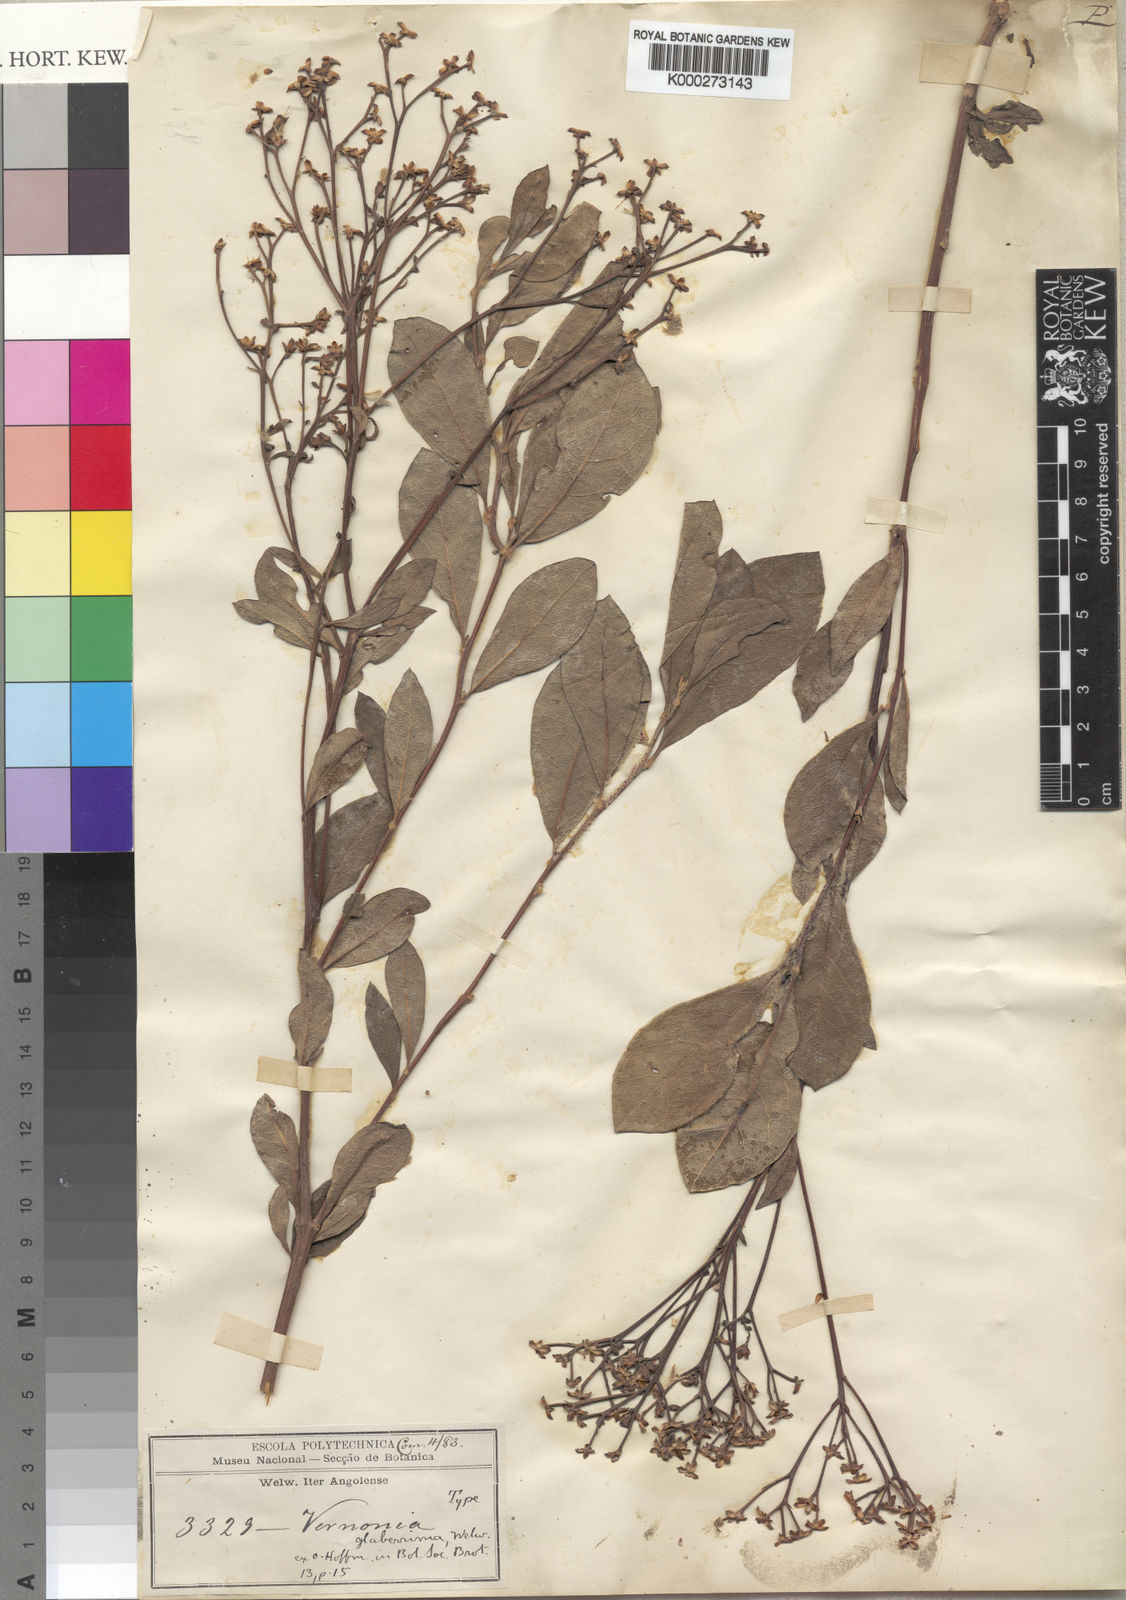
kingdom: Plantae
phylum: Tracheophyta
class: Magnoliopsida
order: Asterales
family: Asteraceae
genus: Gymnanthemum
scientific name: Gymnanthemum glaberrimum
